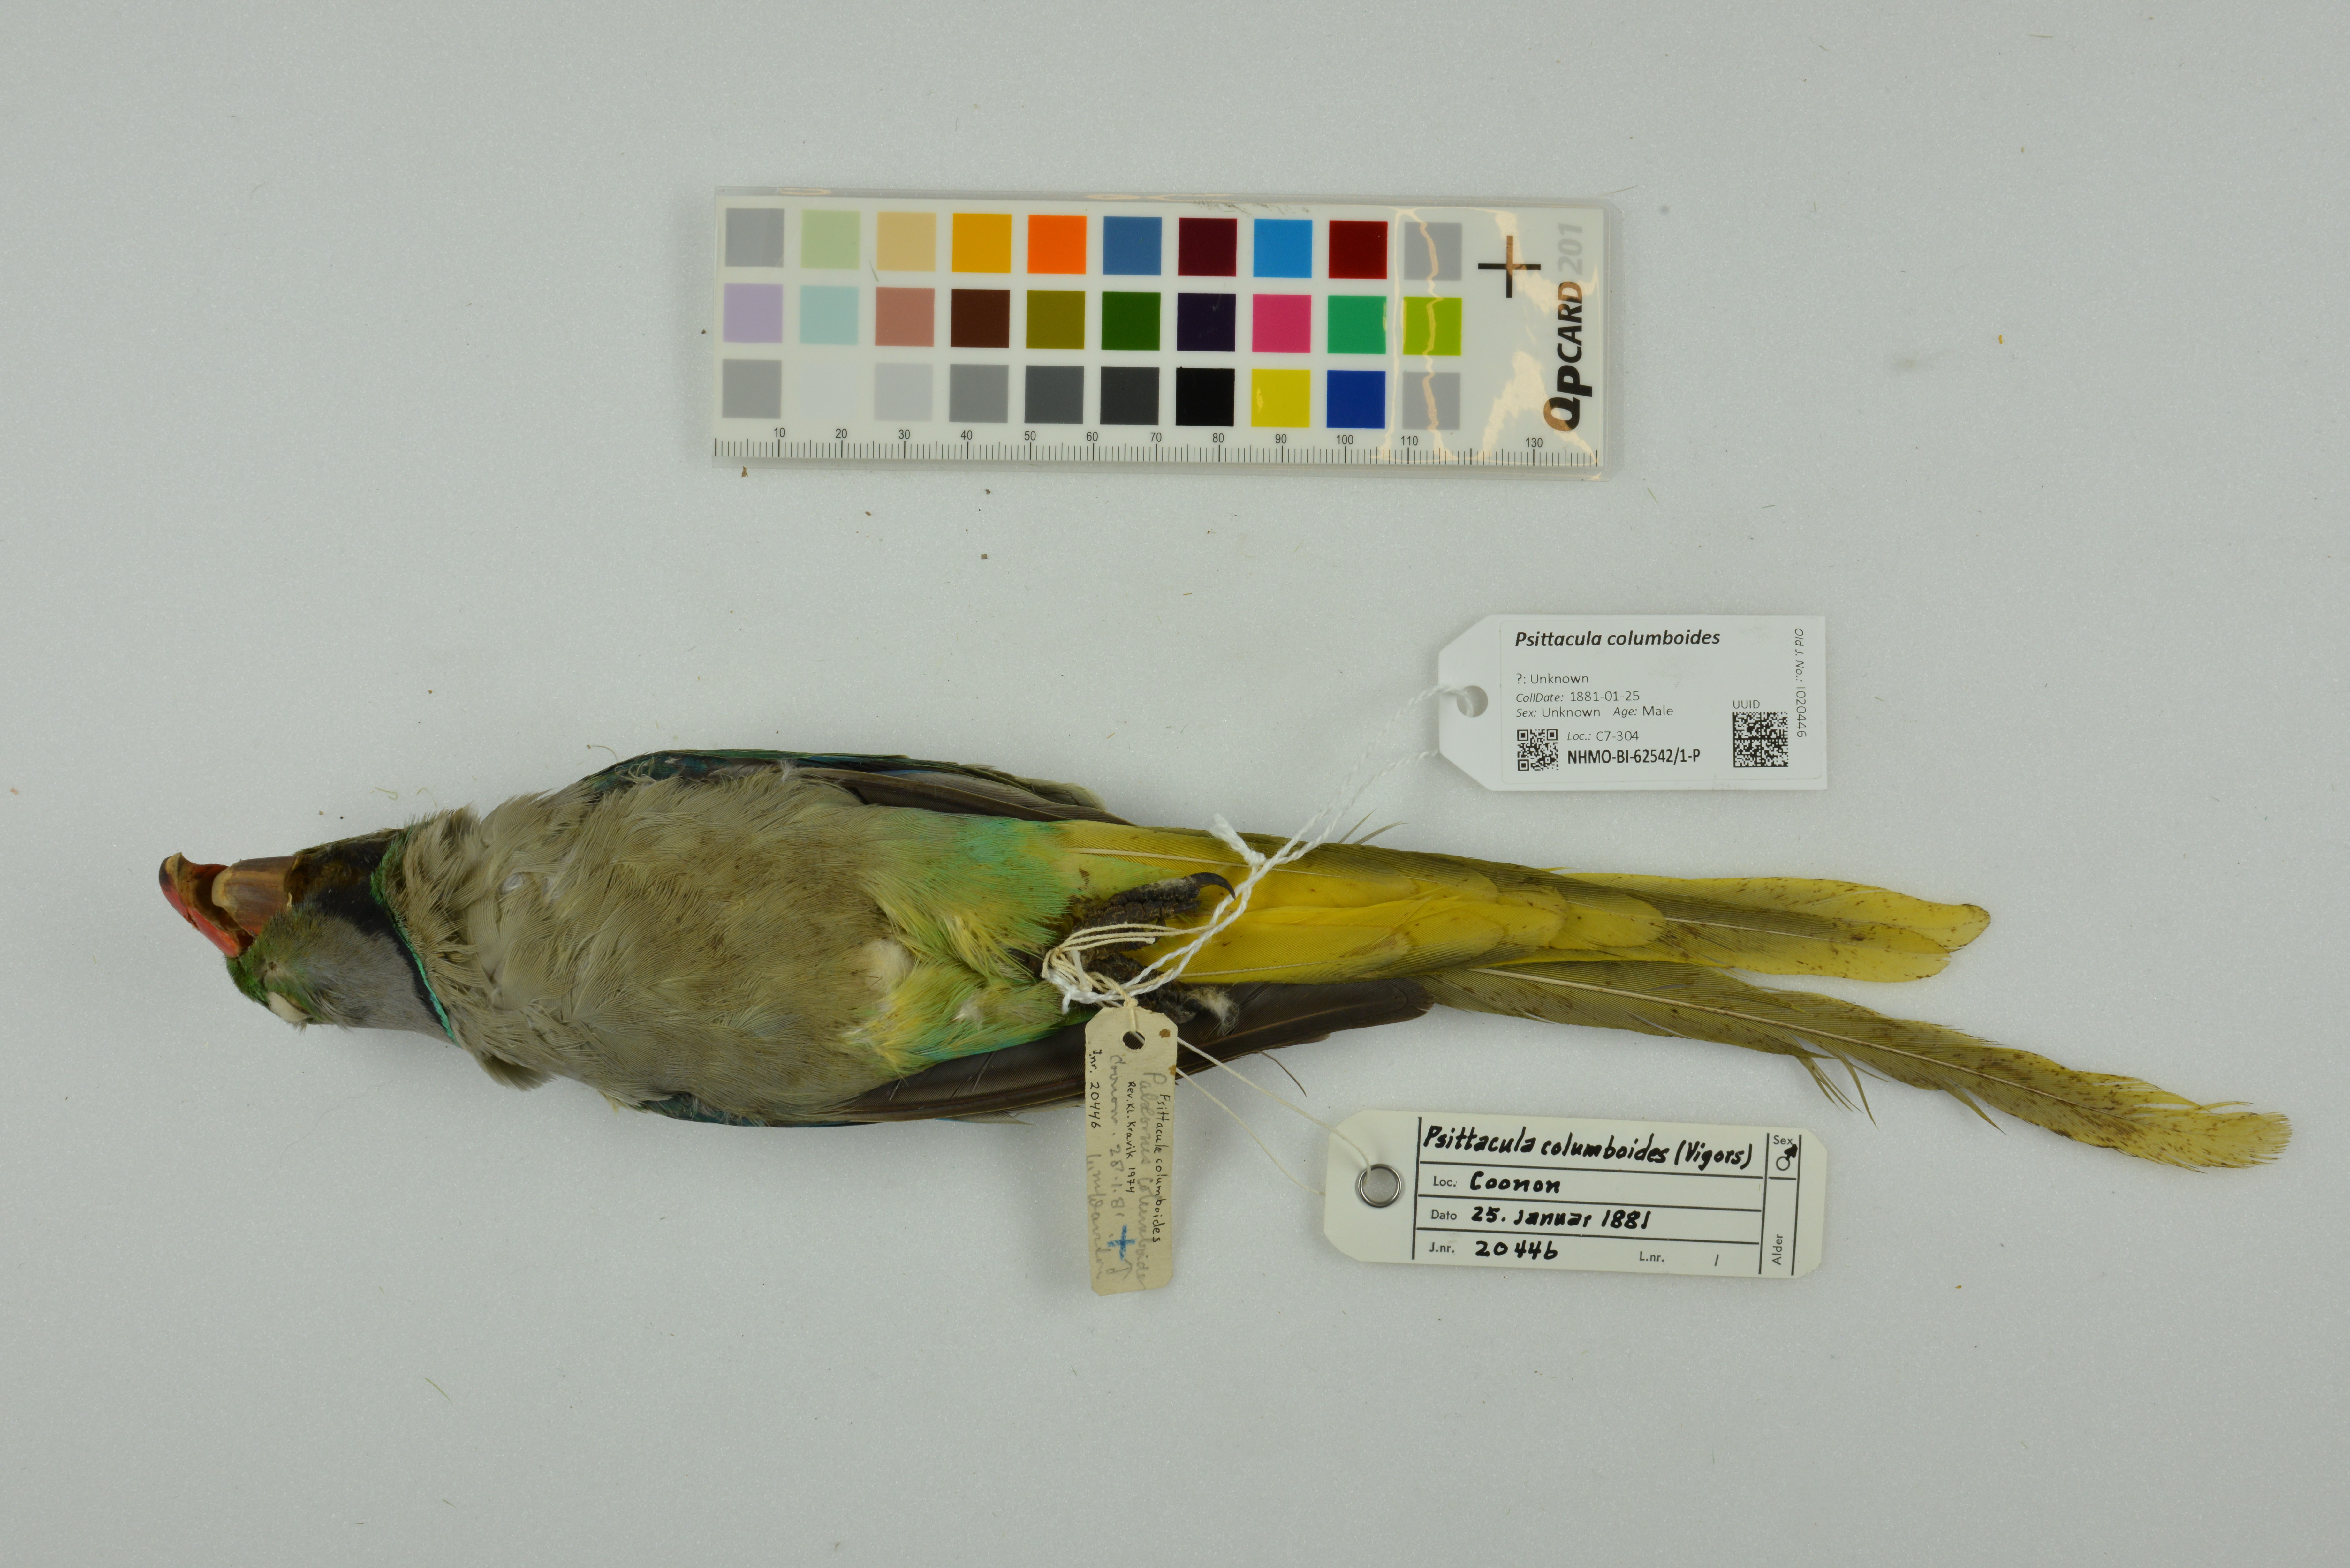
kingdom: Animalia
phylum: Chordata
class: Aves
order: Psittaciformes
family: Psittacidae
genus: Psittacula
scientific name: Psittacula columboides
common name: Blue-winged parakeet
